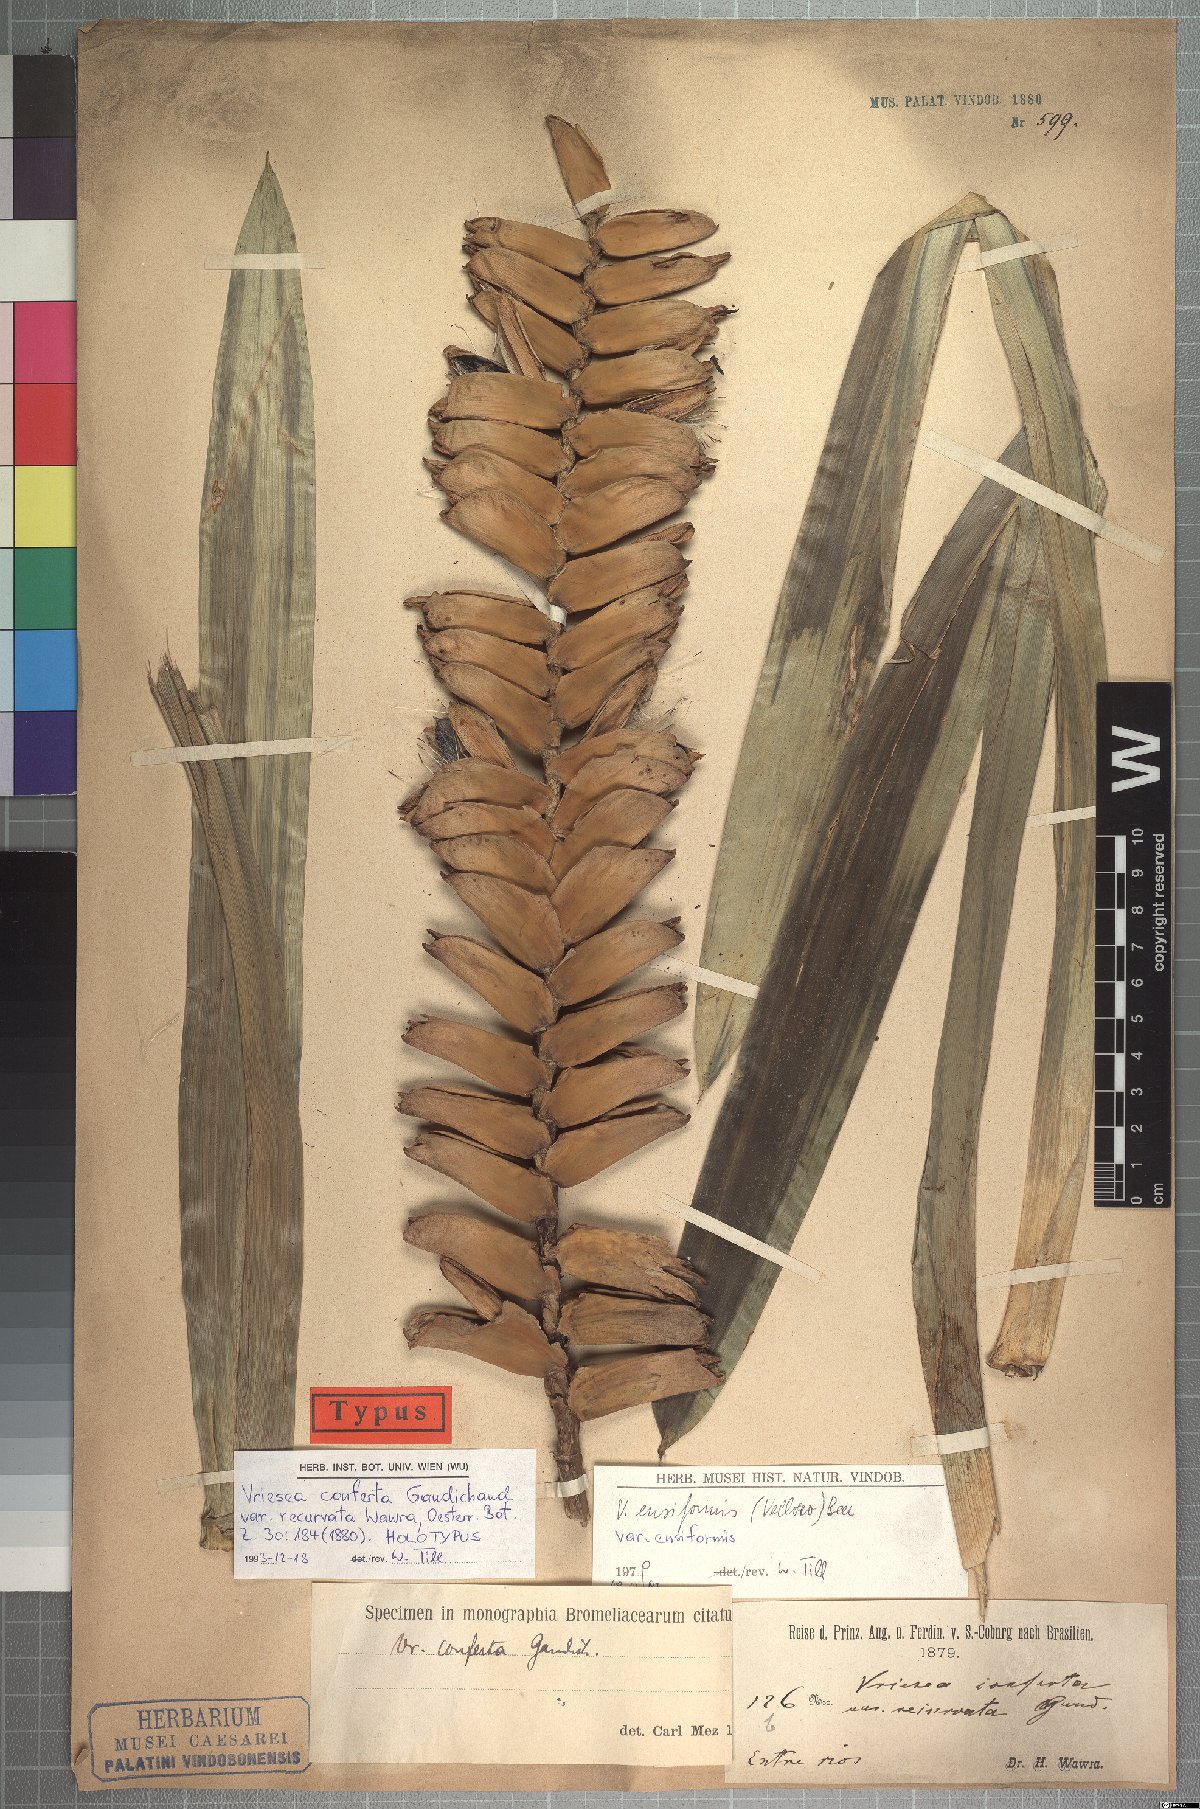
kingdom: Plantae
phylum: Tracheophyta
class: Liliopsida
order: Poales
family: Bromeliaceae
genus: Vriesea
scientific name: Vriesea ensiformis
